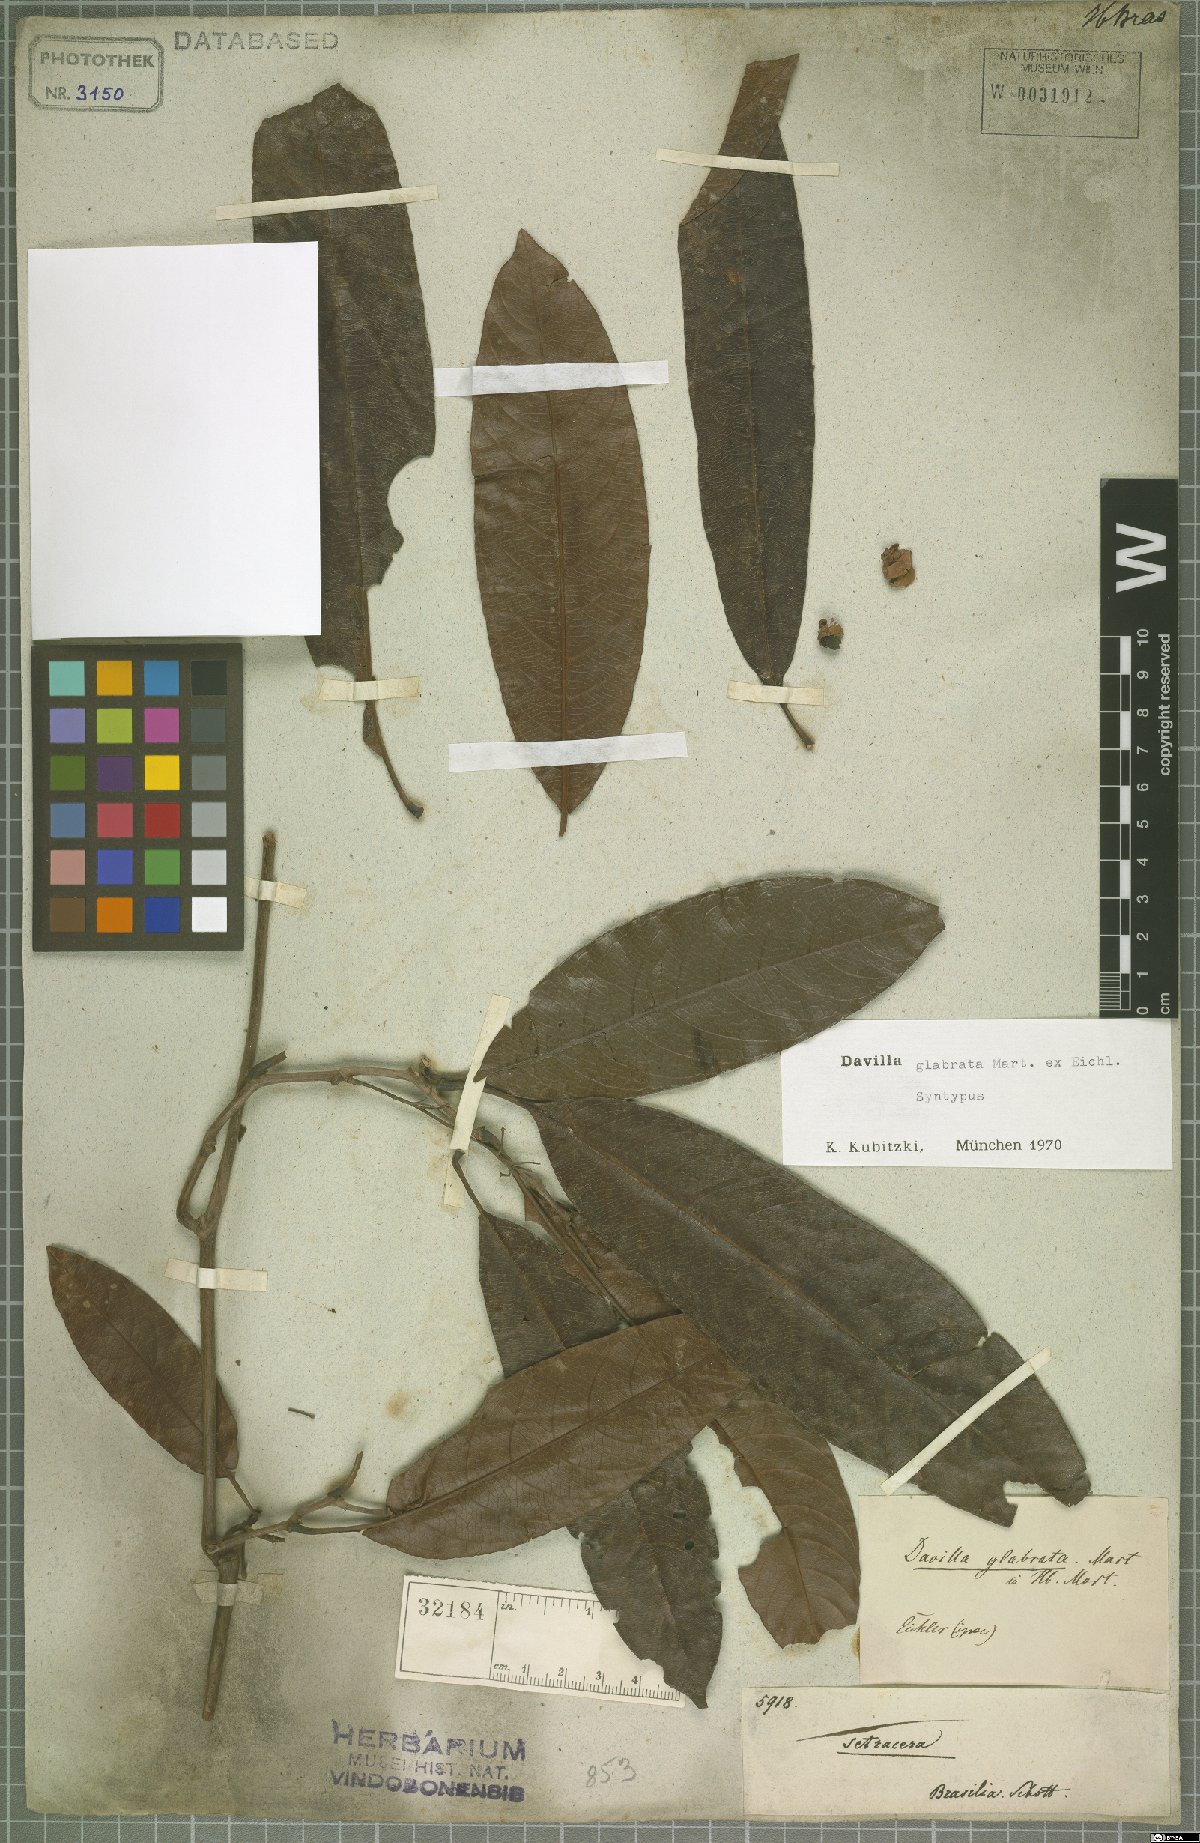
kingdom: Plantae
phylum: Tracheophyta
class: Magnoliopsida
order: Dilleniales
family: Dilleniaceae
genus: Davilla
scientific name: Davilla glabrata
